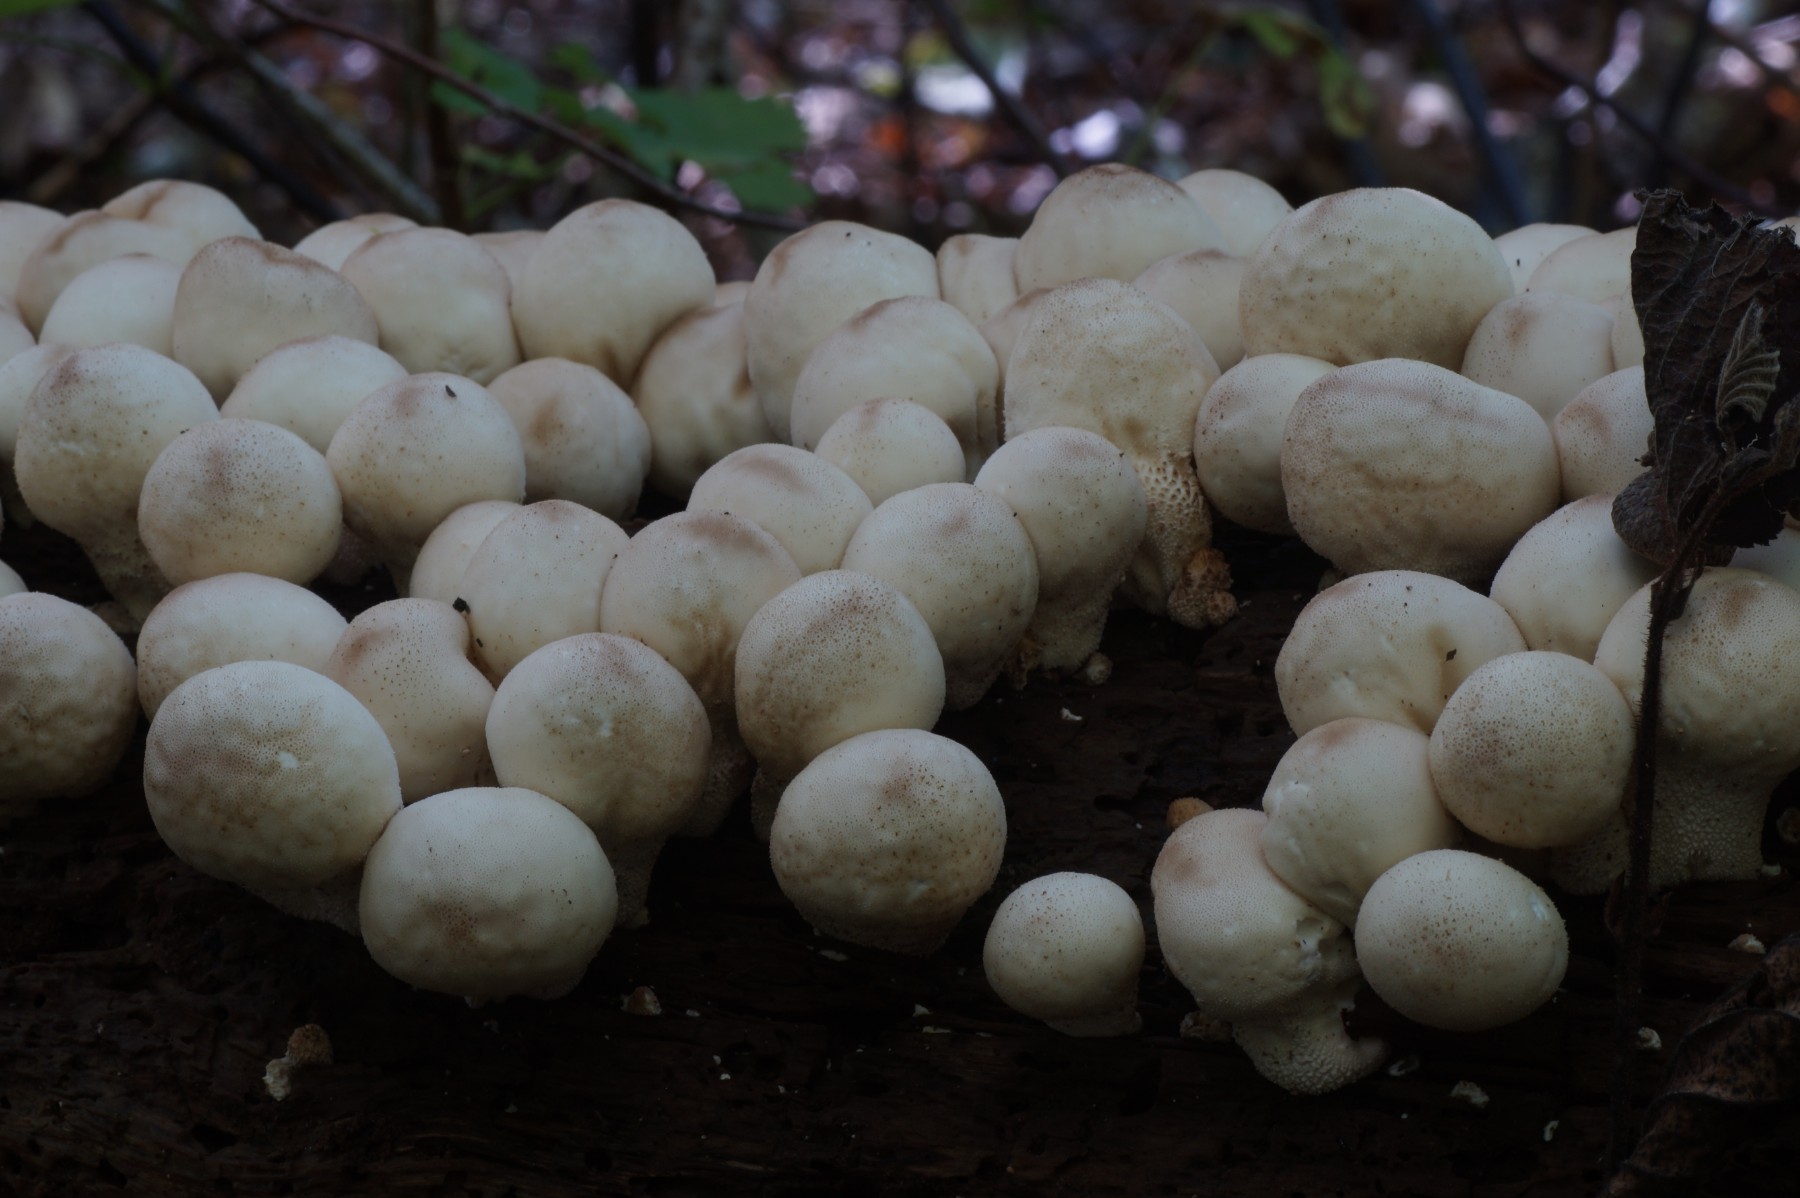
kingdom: Fungi
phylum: Basidiomycota
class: Agaricomycetes
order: Agaricales
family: Lycoperdaceae
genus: Apioperdon
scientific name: Apioperdon pyriforme
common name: pære-støvbold
